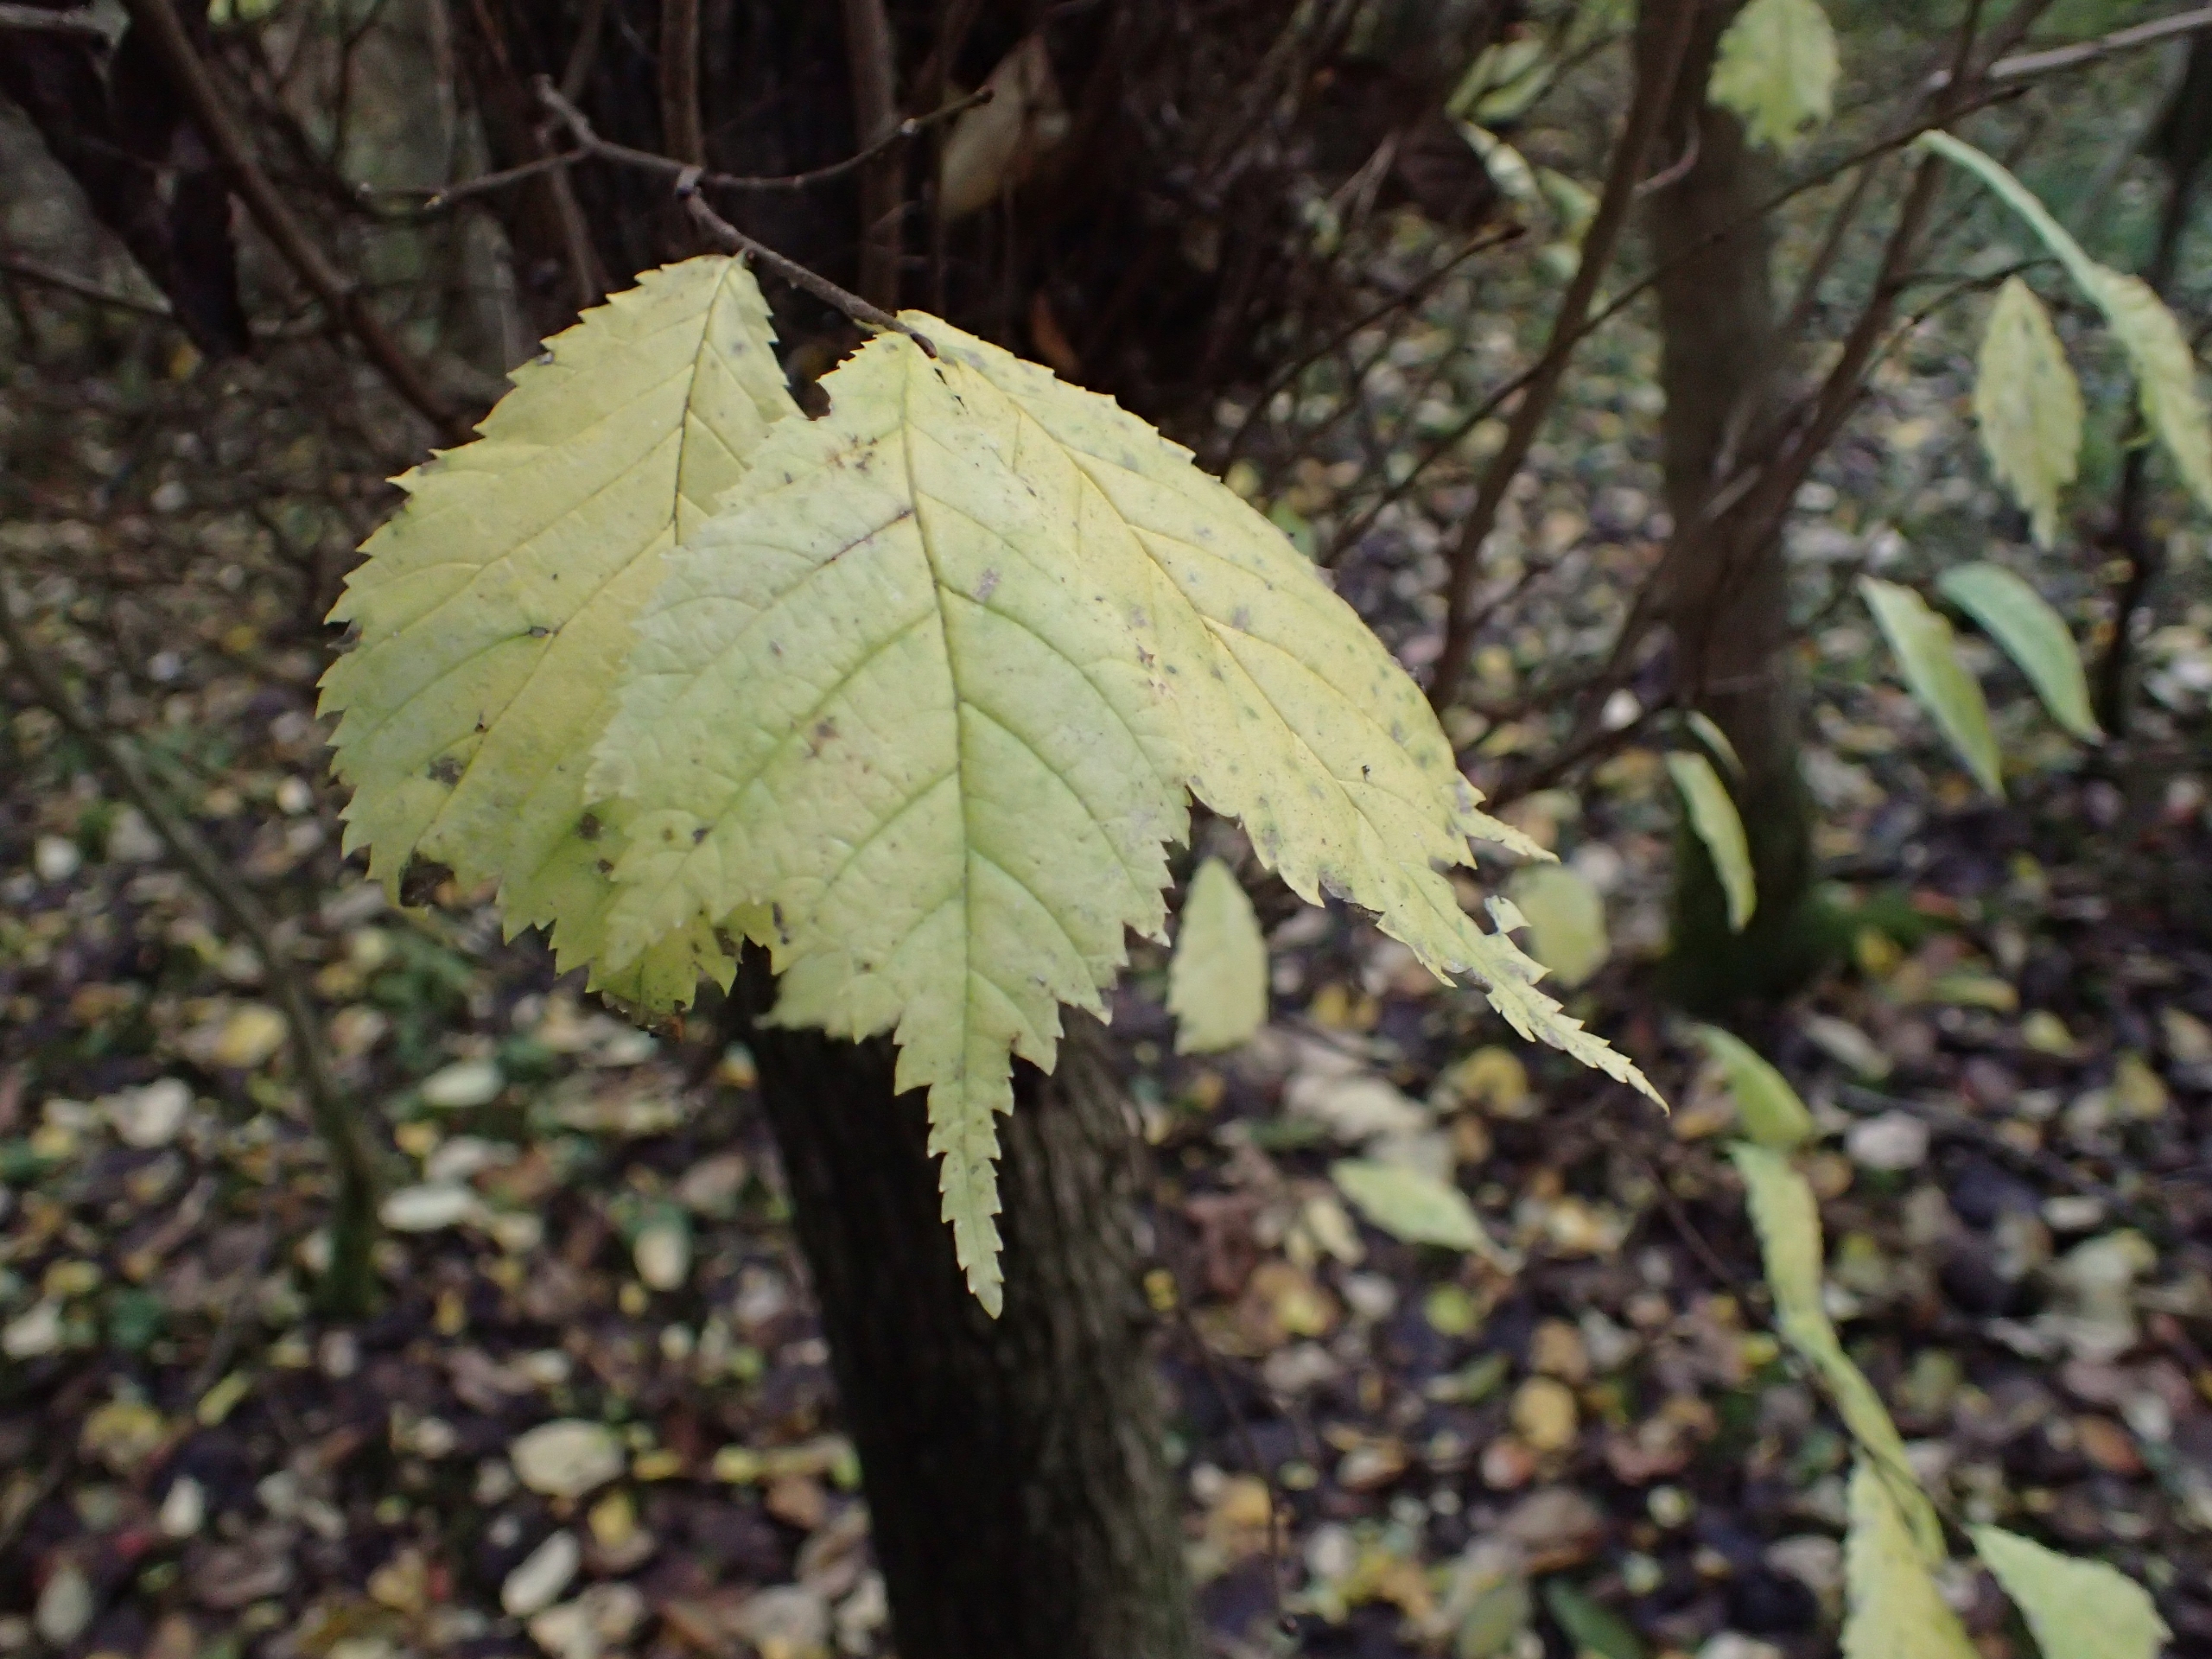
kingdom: Plantae
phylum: Tracheophyta
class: Magnoliopsida
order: Rosales
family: Ulmaceae
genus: Ulmus
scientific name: Ulmus glabra
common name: Skov-elm/storbladet elm
